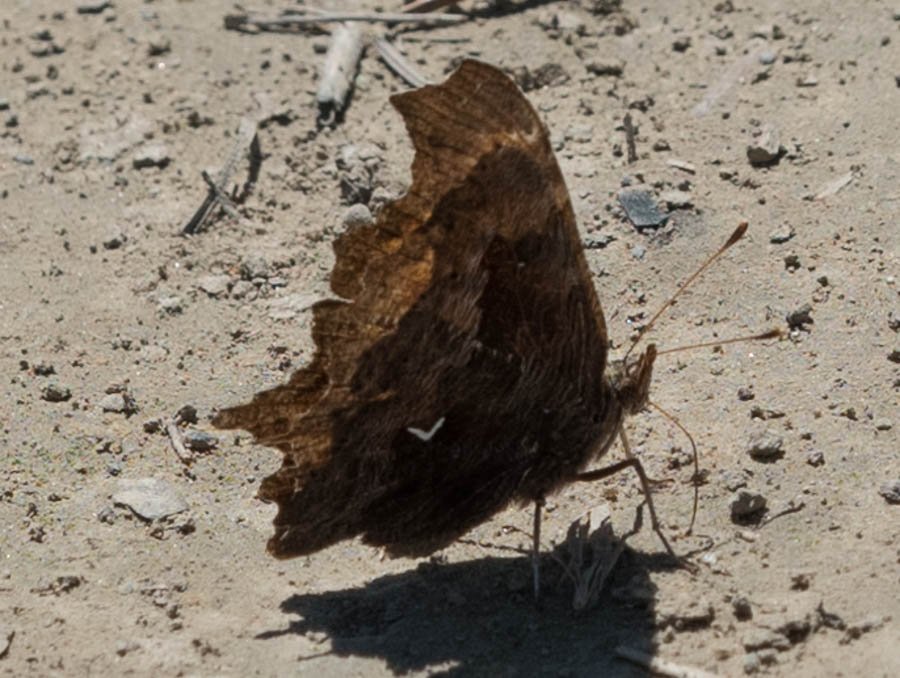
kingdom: Animalia
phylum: Arthropoda
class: Insecta
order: Lepidoptera
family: Nymphalidae
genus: Polygonia
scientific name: Polygonia oreas
